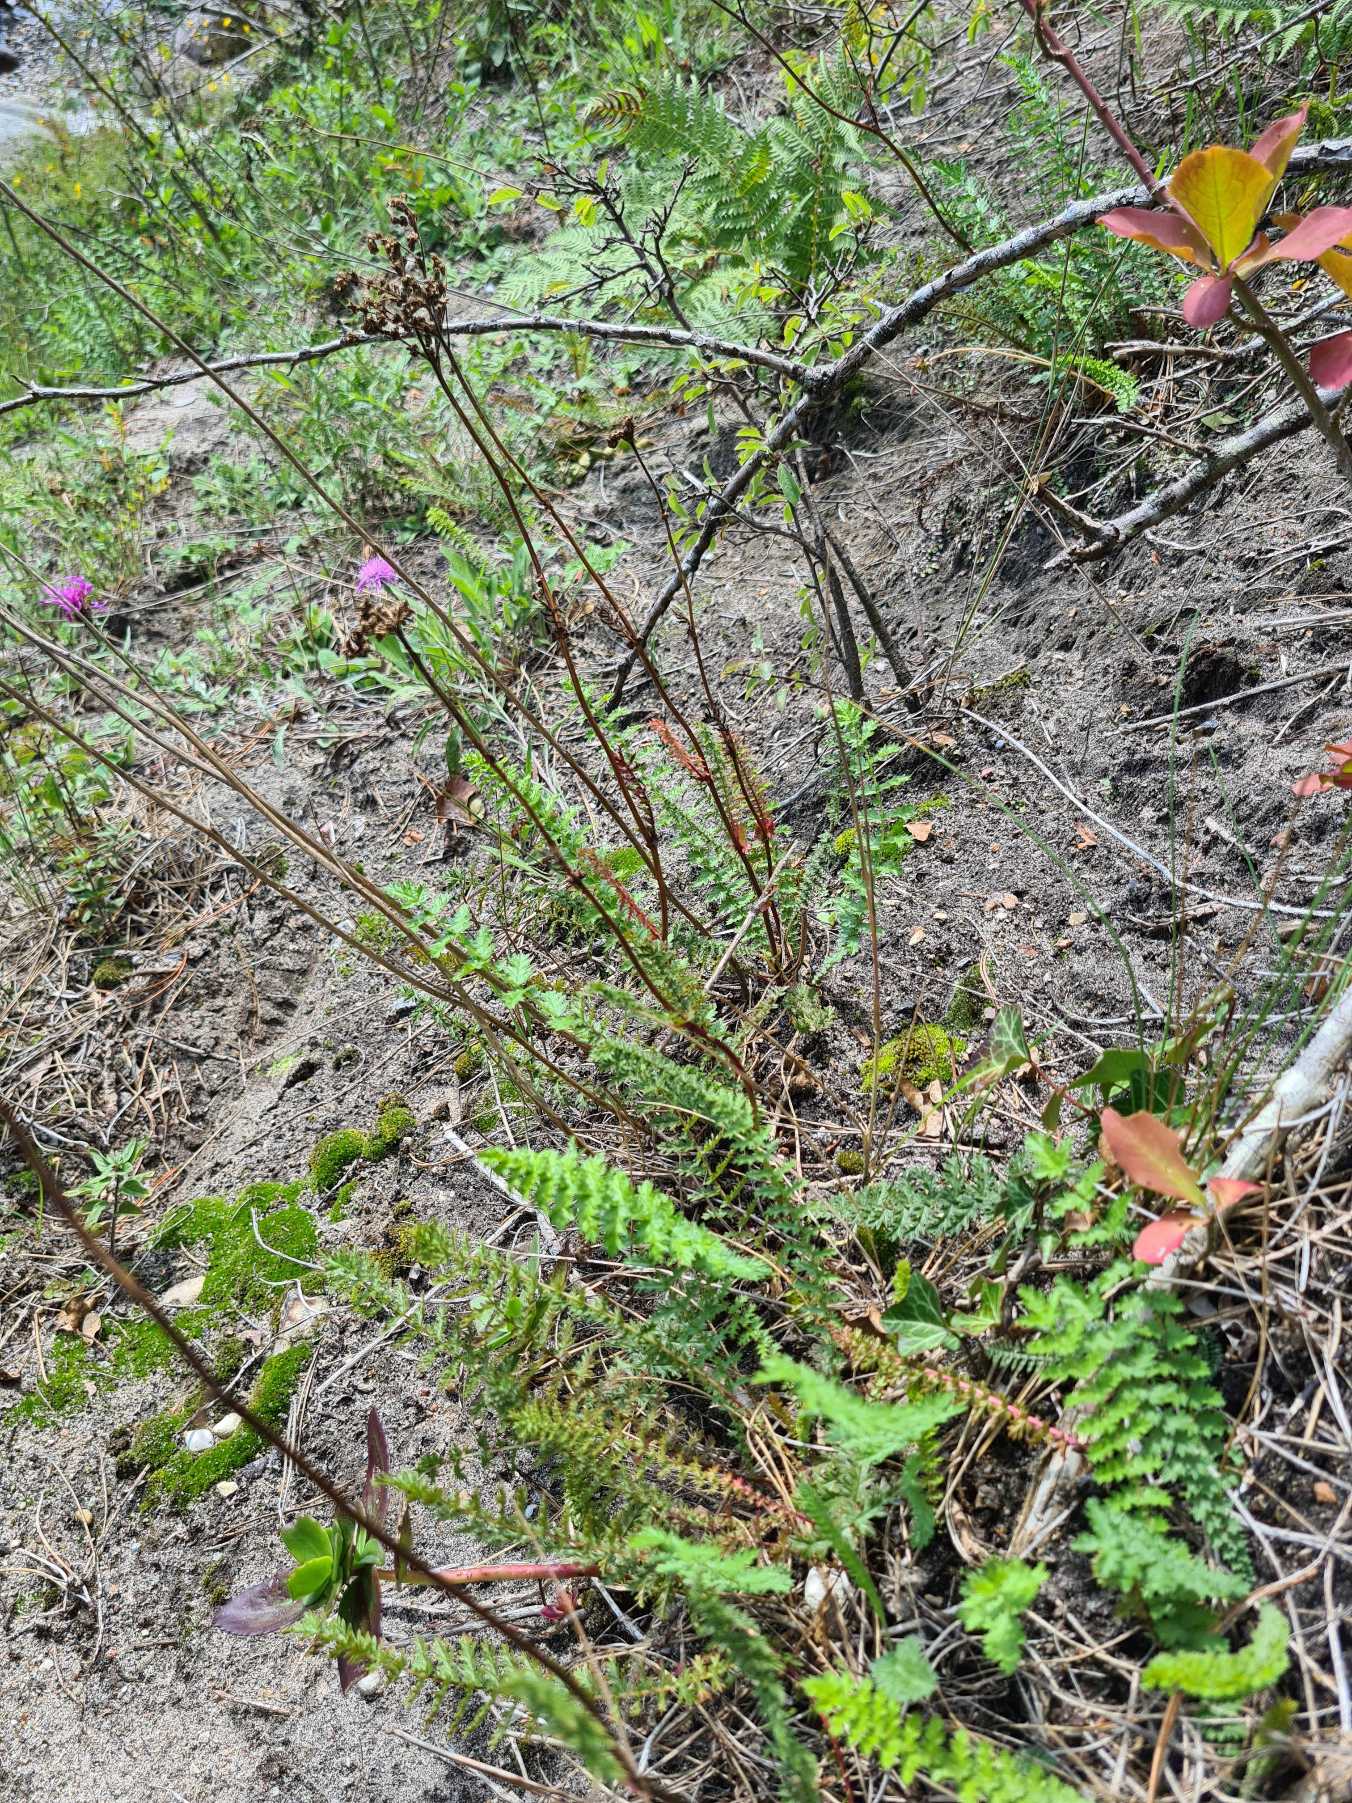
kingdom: Plantae
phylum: Tracheophyta
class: Magnoliopsida
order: Rosales
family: Rosaceae
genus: Filipendula
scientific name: Filipendula vulgaris
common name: Knoldet mjødurt
